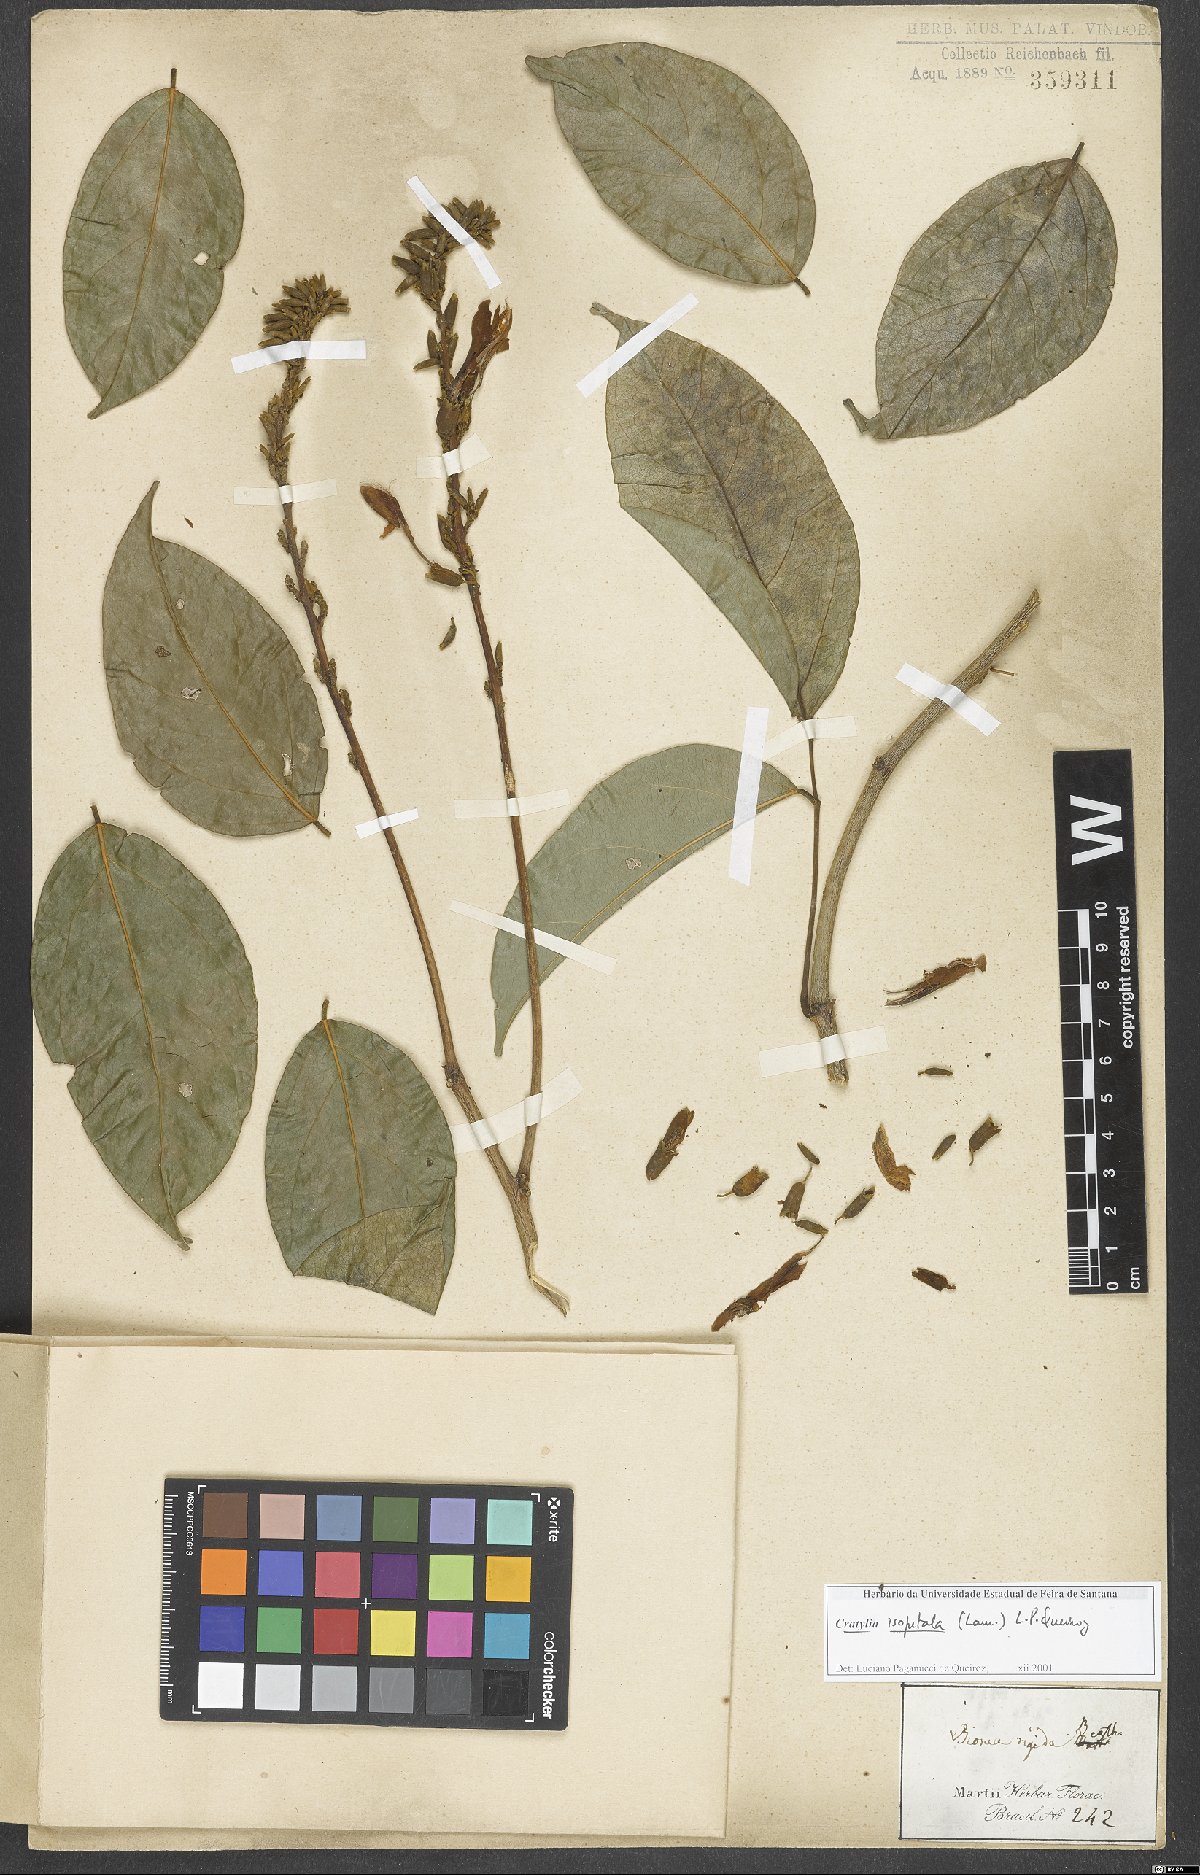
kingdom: Plantae
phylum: Tracheophyta
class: Magnoliopsida
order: Fabales
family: Fabaceae
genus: Cratylia
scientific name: Cratylia isopetala
